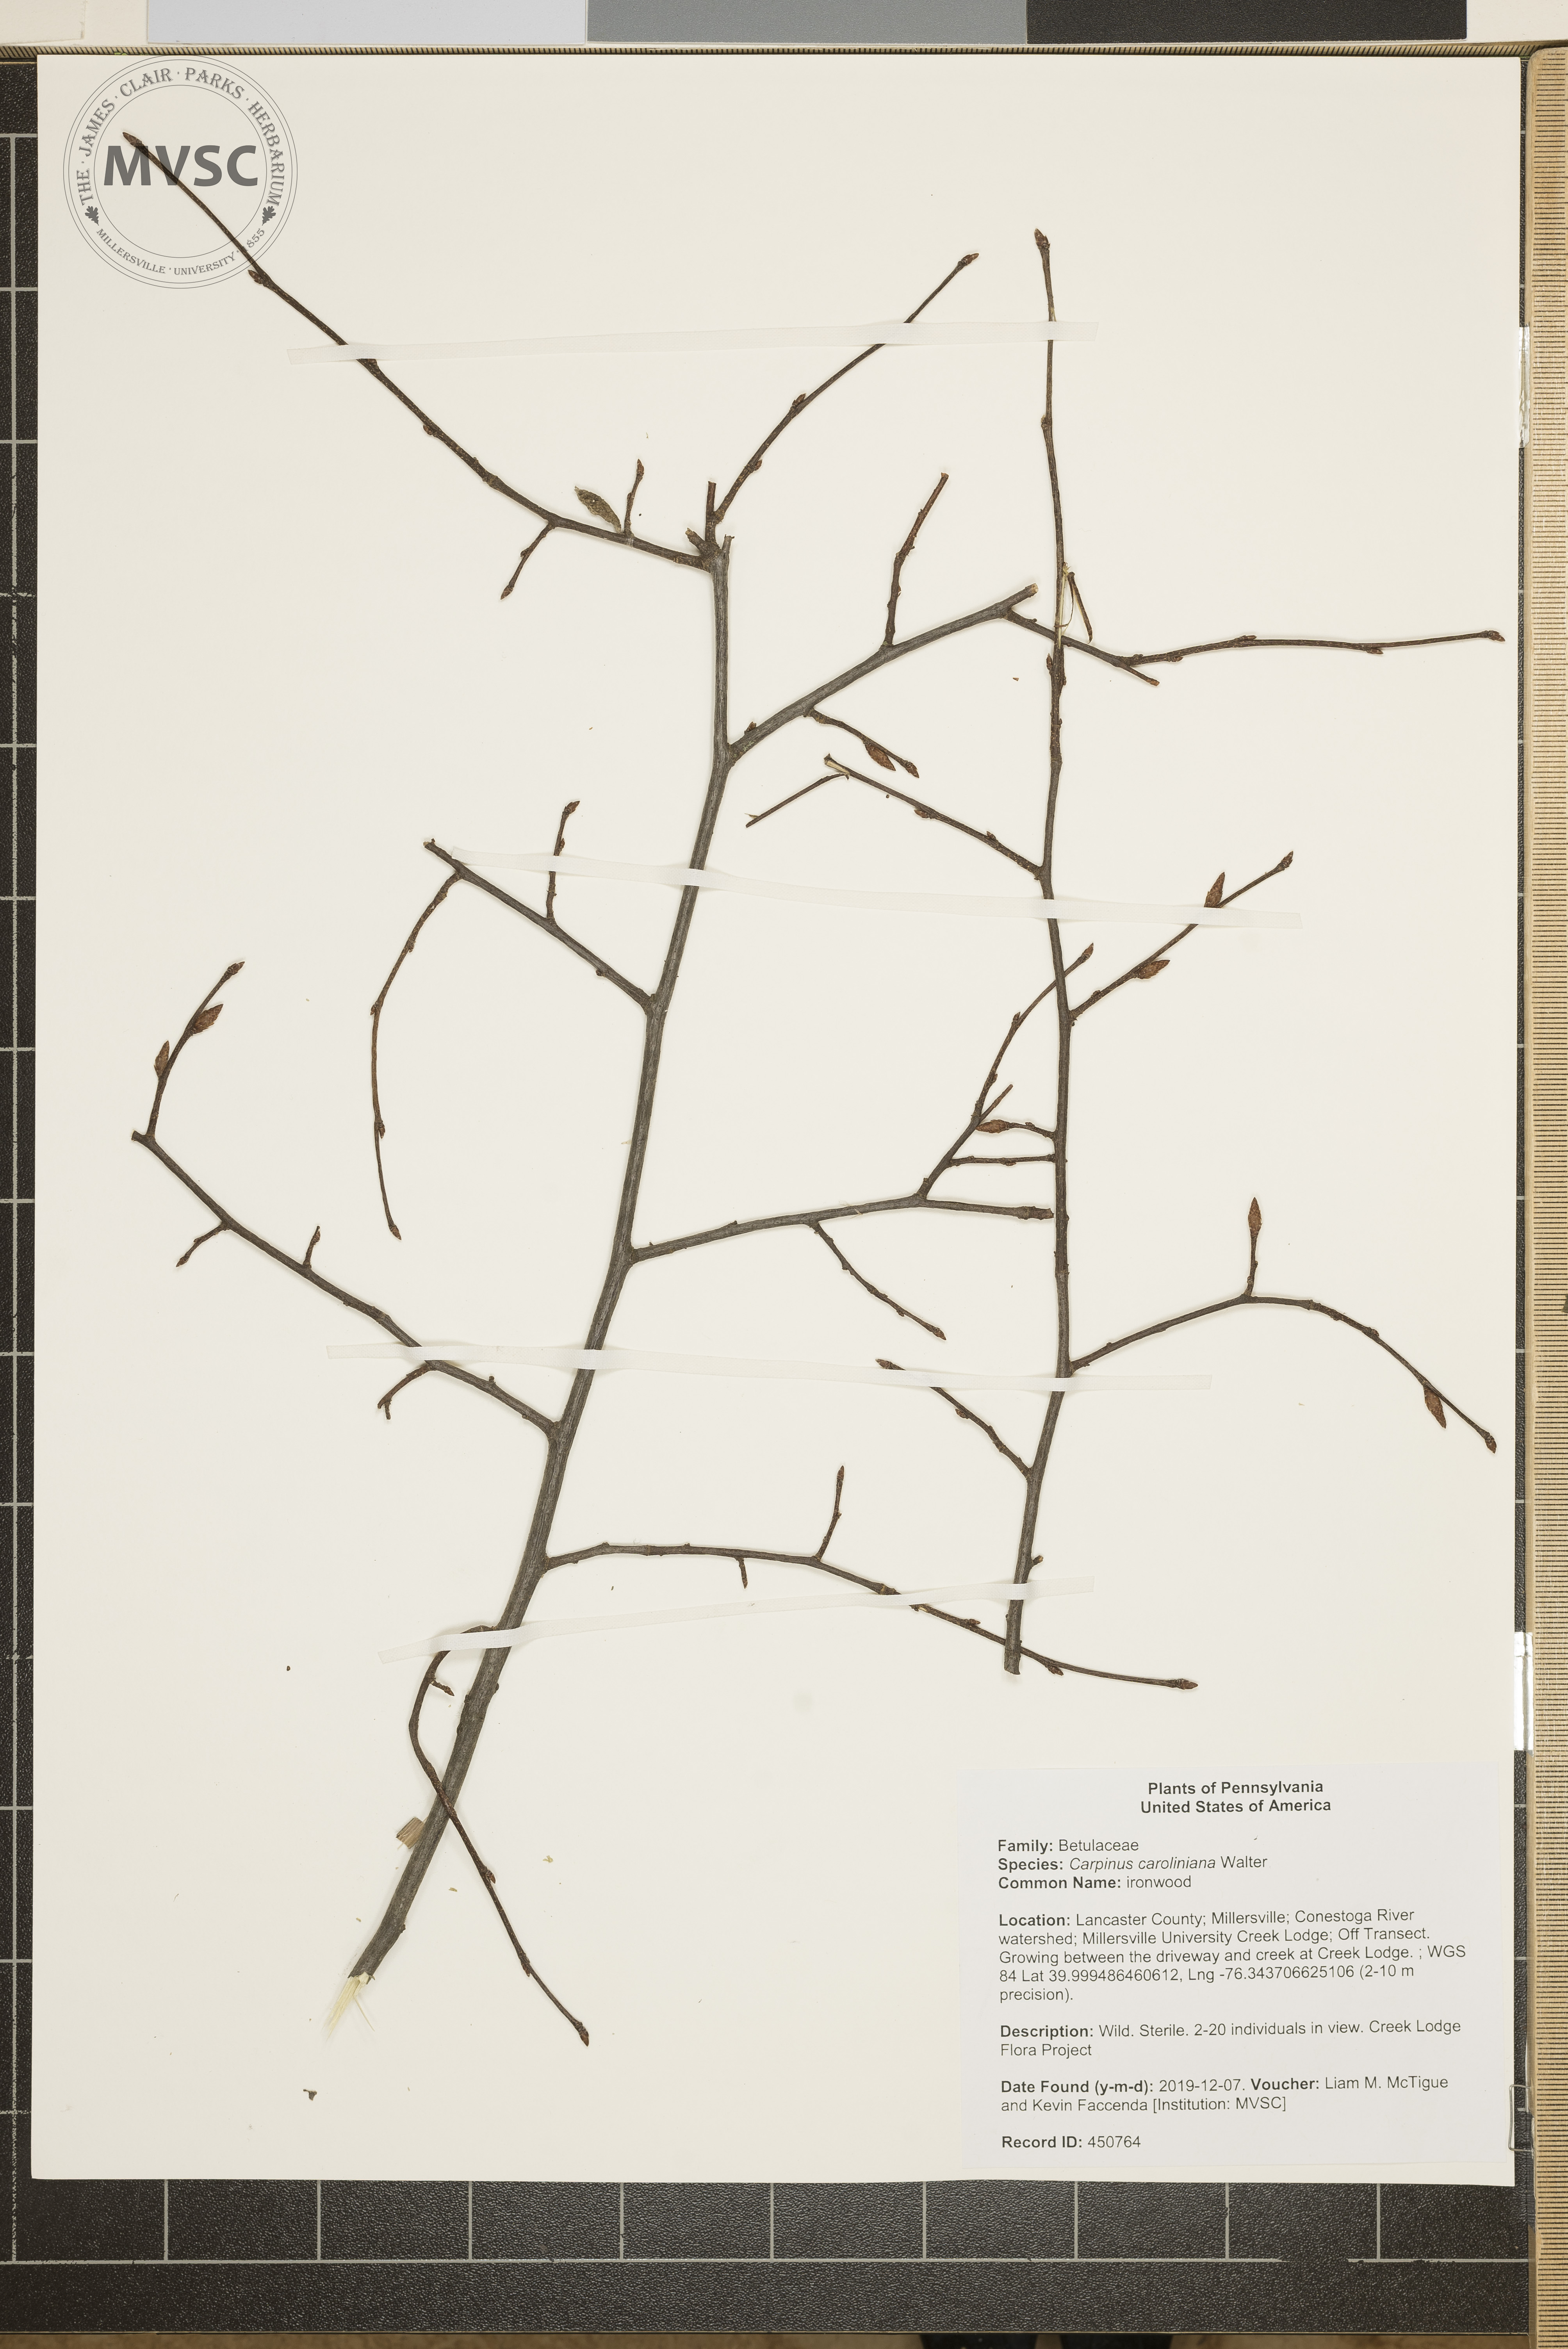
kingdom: Plantae
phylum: Tracheophyta
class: Magnoliopsida
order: Fagales
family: Betulaceae
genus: Carpinus
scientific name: Carpinus caroliniana
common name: ironwood
